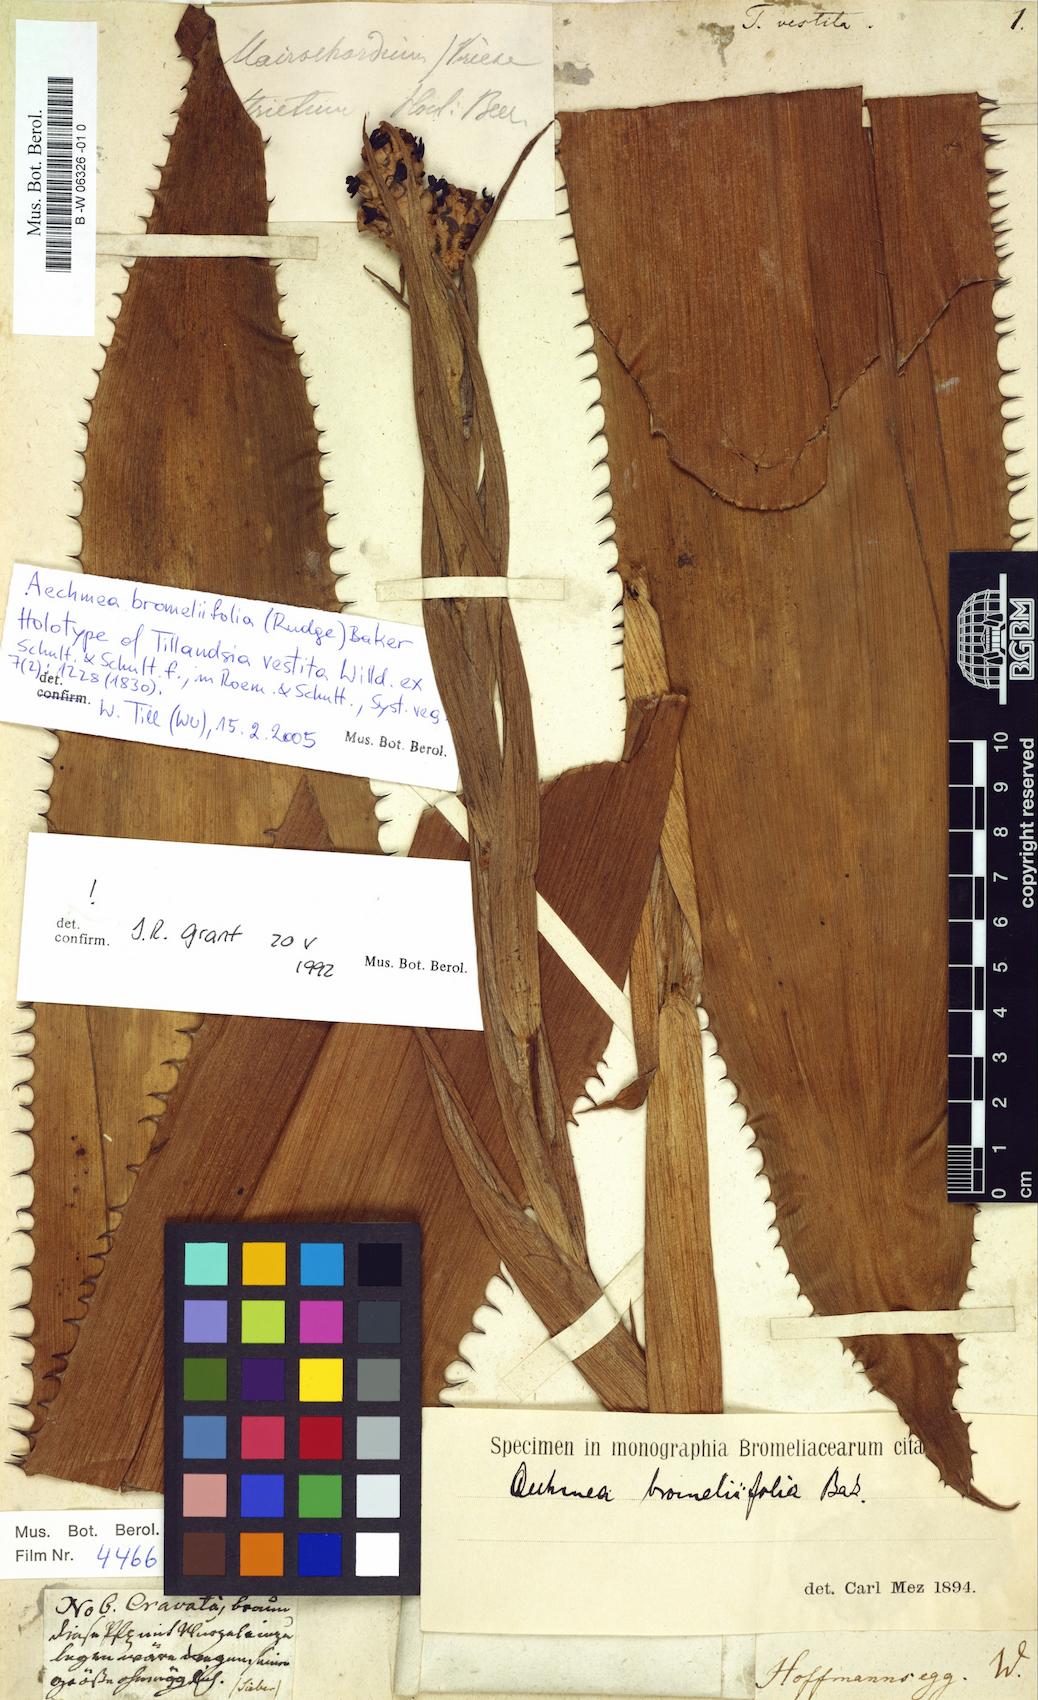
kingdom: Plantae
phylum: Tracheophyta
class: Liliopsida
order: Poales
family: Bromeliaceae
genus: Aechmea
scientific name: Aechmea bromeliifolia
